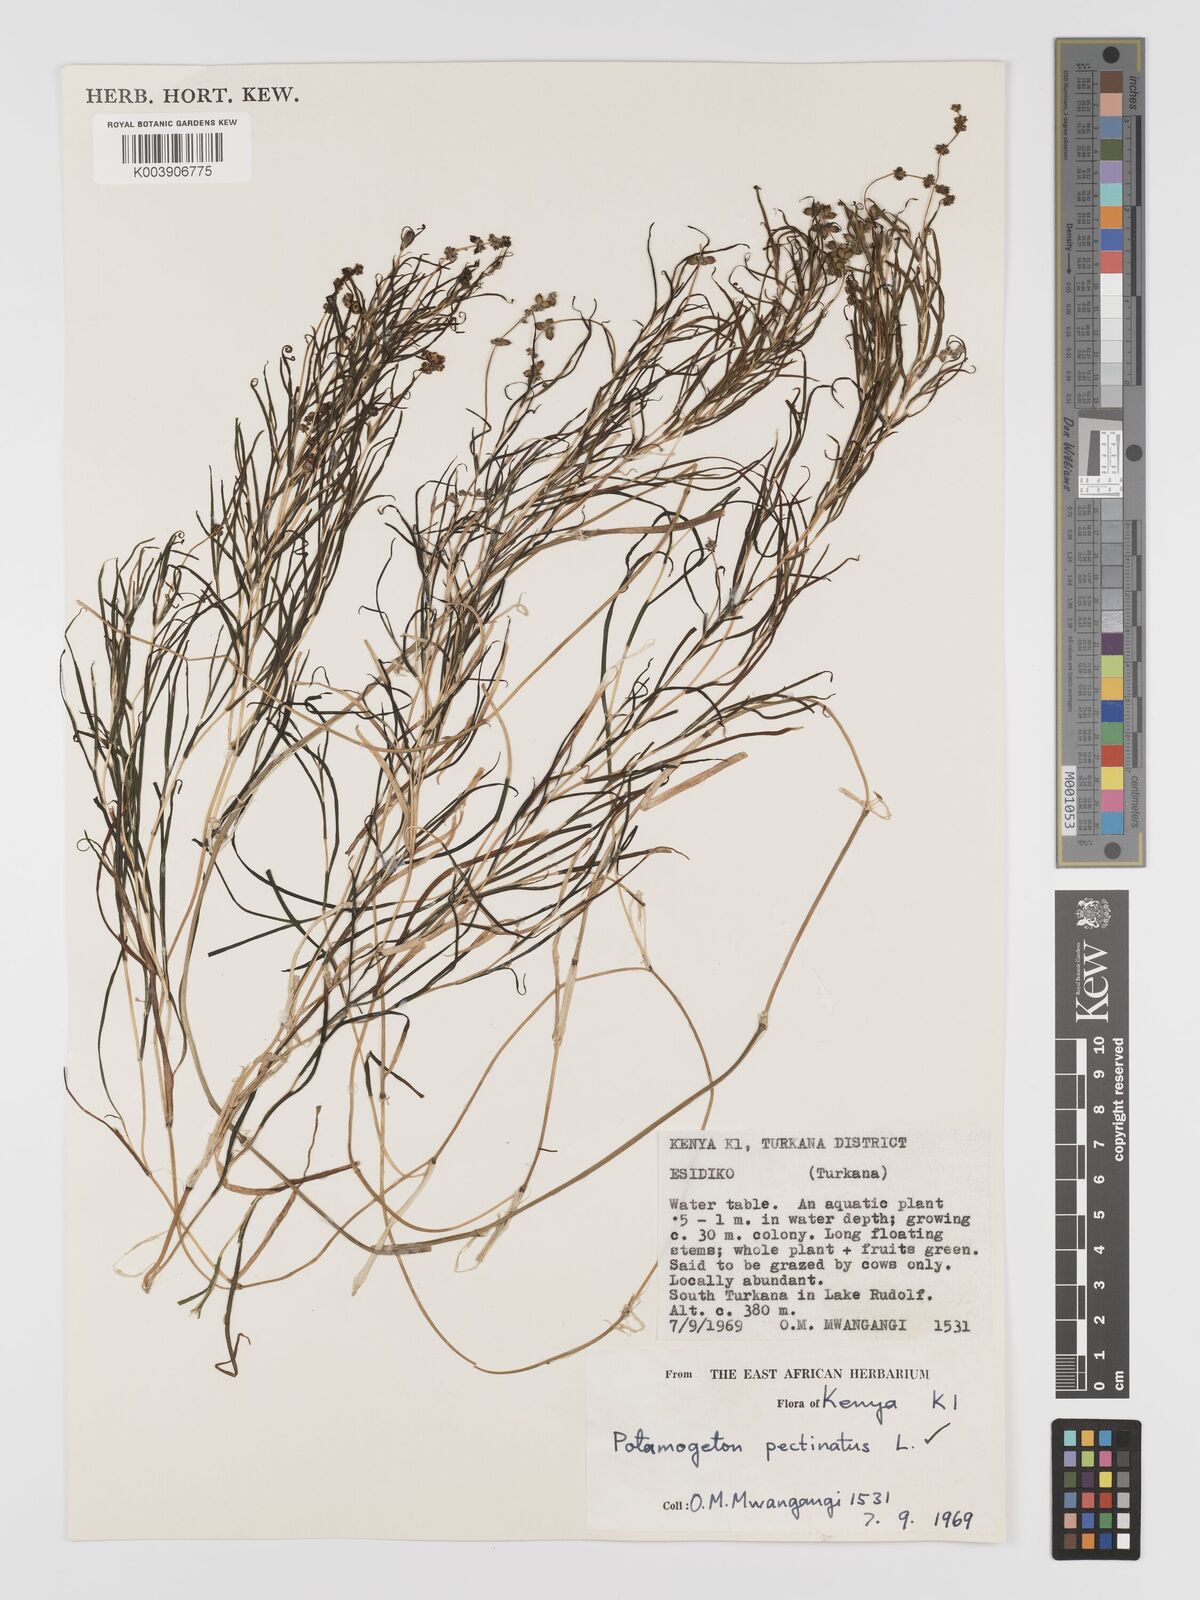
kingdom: Plantae
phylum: Tracheophyta
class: Liliopsida
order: Alismatales
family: Potamogetonaceae
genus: Stuckenia
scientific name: Stuckenia pectinata
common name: Sago pondweed
